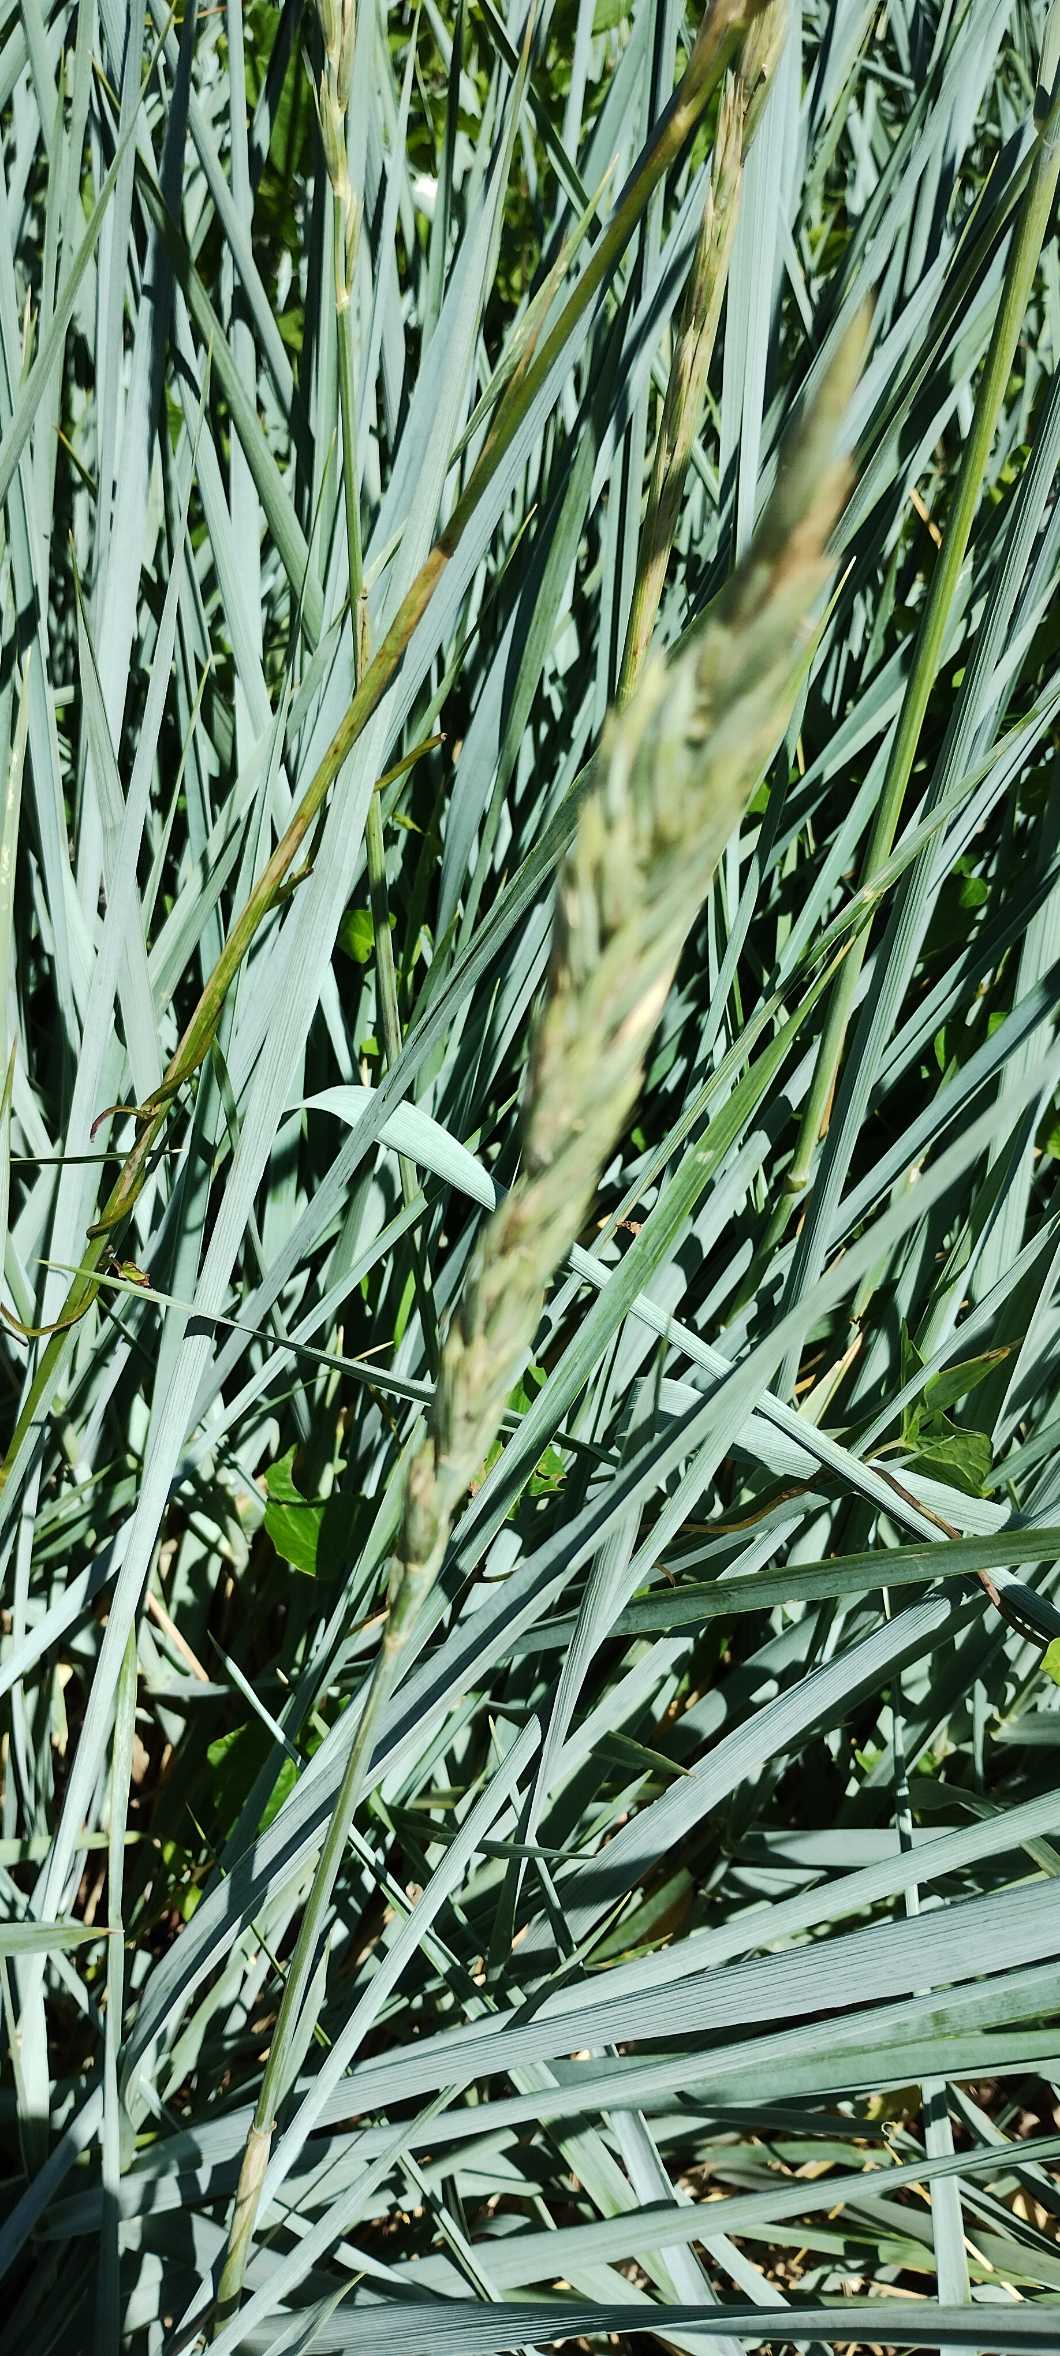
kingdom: Plantae
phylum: Tracheophyta
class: Liliopsida
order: Poales
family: Poaceae
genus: Leymus
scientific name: Leymus arenarius
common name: Marehalm
